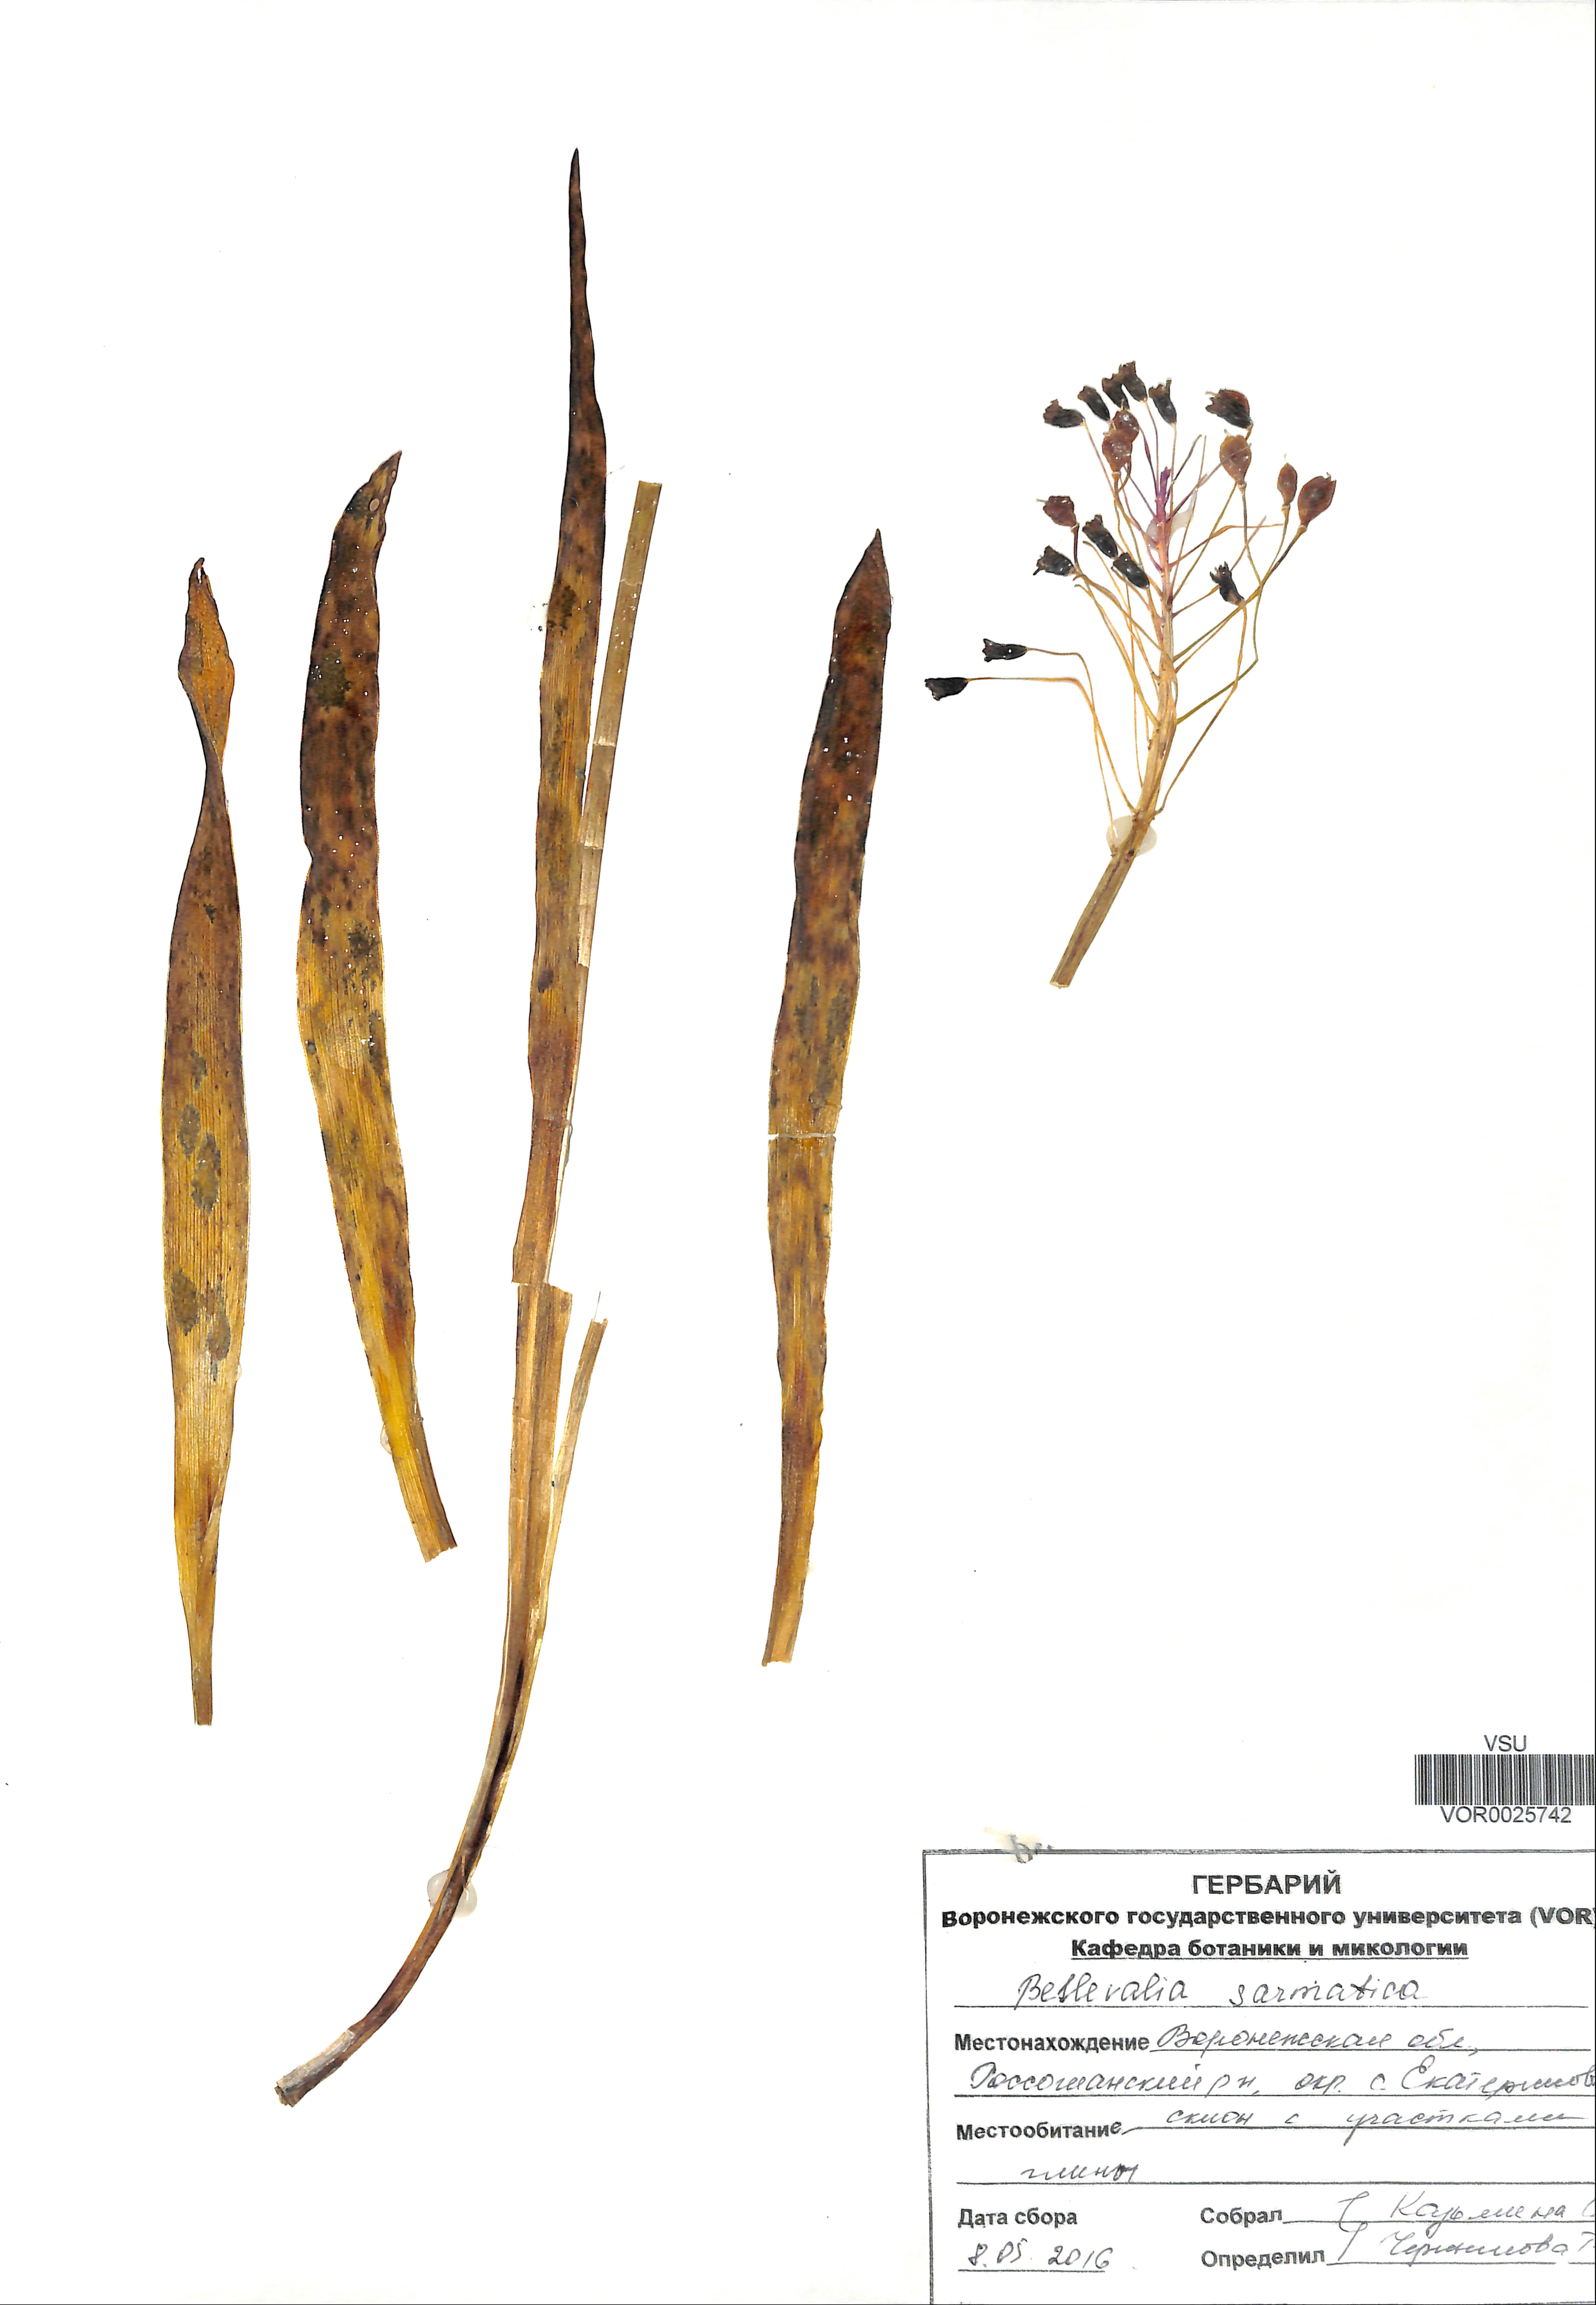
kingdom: Plantae
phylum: Tracheophyta
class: Liliopsida
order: Asparagales
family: Asparagaceae
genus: Bellevalia
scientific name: Bellevalia speciosa
